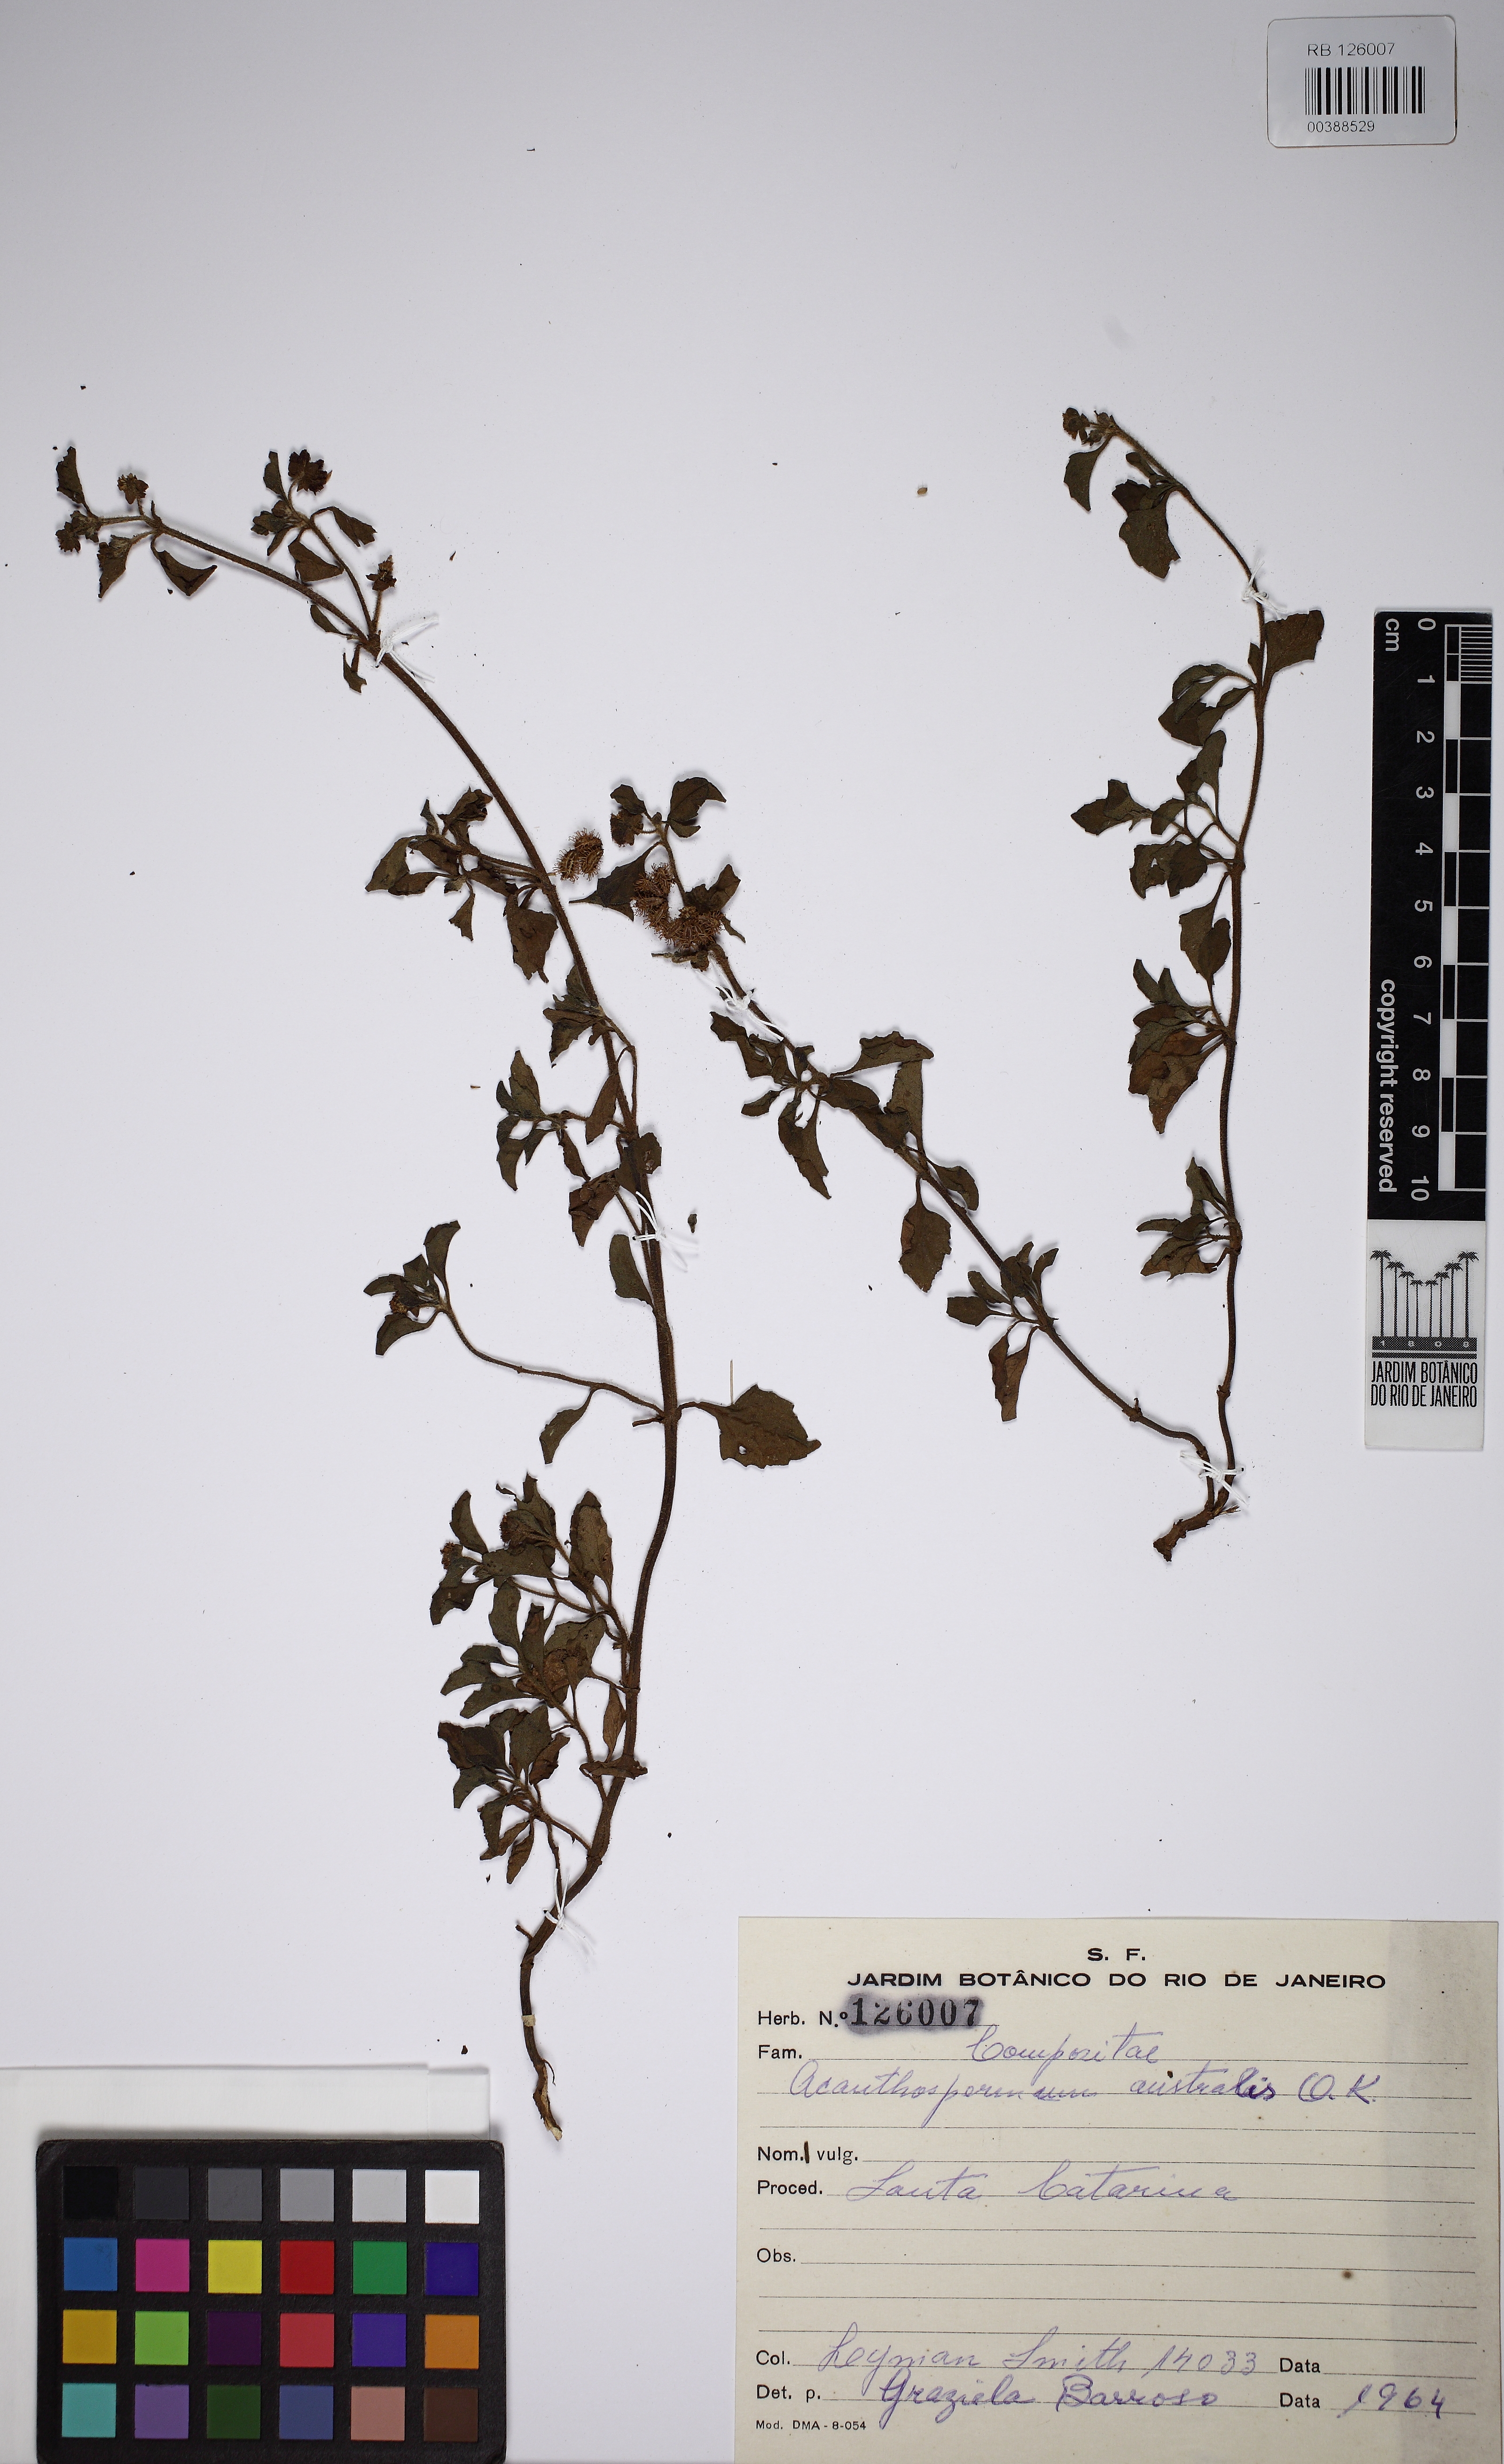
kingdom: Plantae
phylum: Tracheophyta
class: Magnoliopsida
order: Asterales
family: Asteraceae
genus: Acanthospermum
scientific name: Acanthospermum australe
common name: Paraguayan starbur
